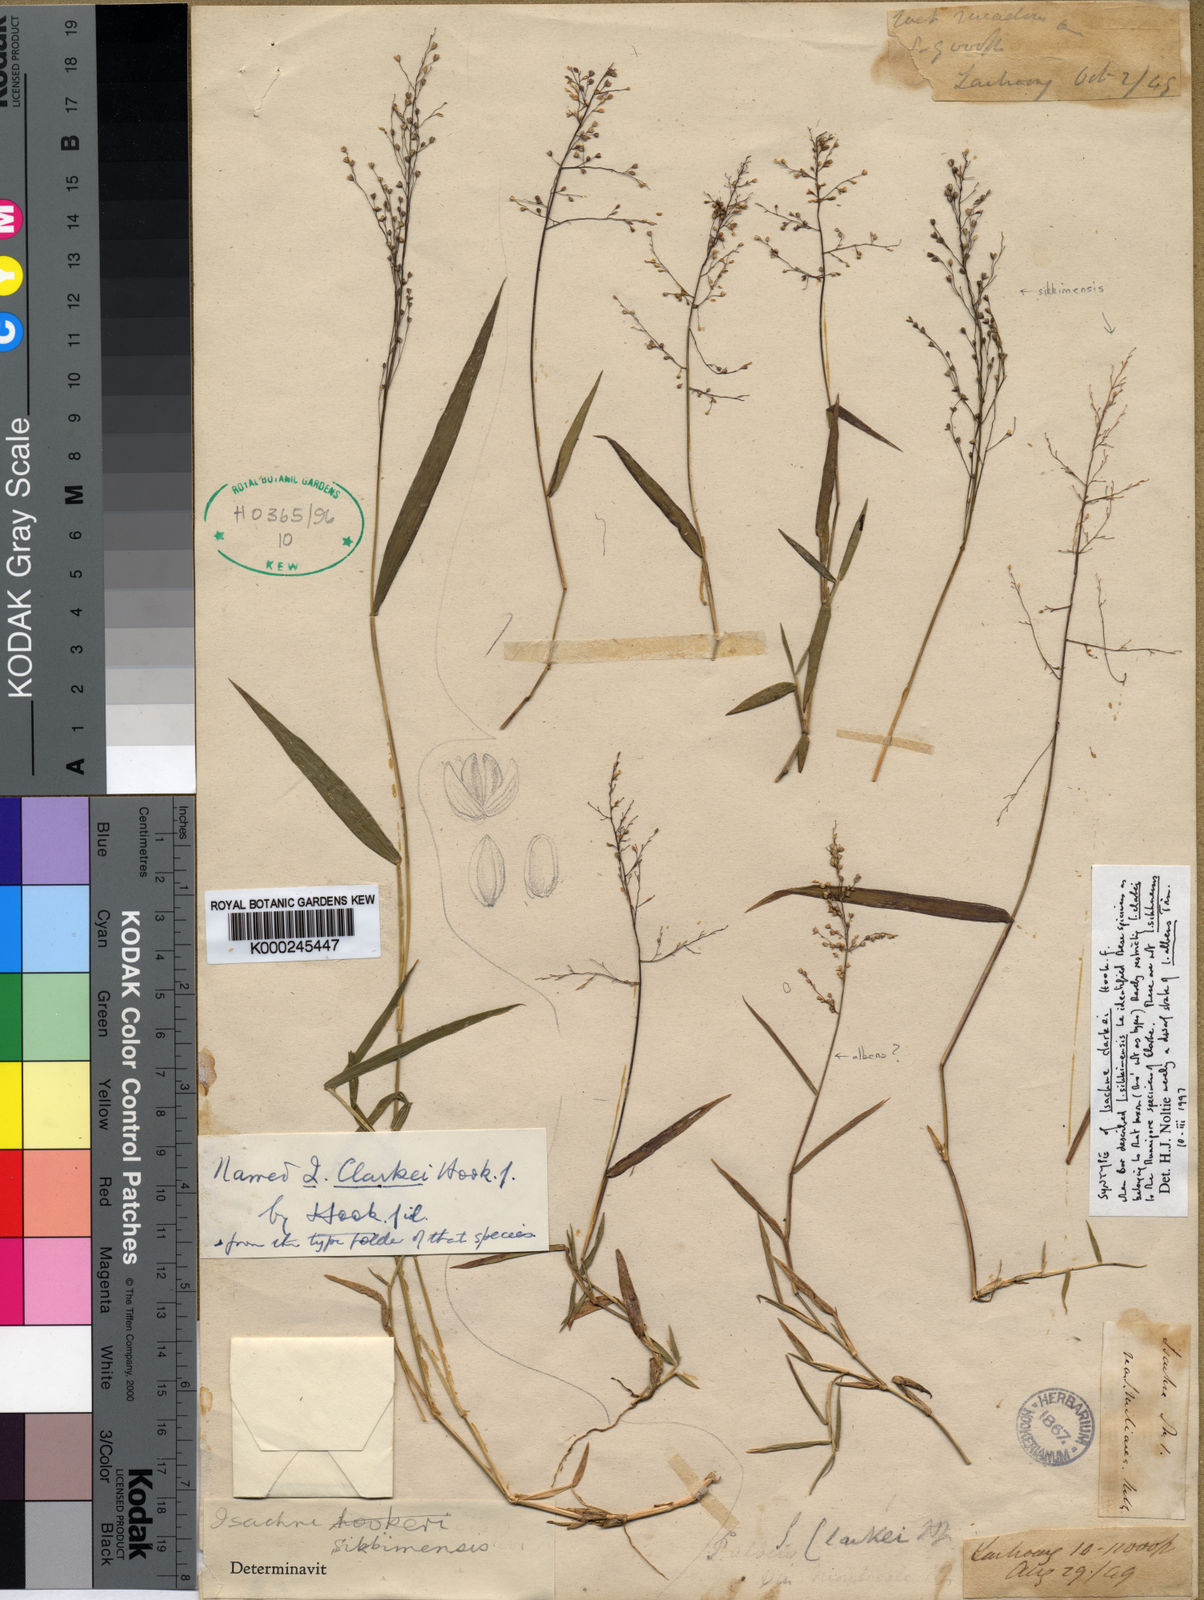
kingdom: Plantae
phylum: Tracheophyta
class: Liliopsida
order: Poales
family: Poaceae
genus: Isachne
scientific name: Isachne sikkimensis
